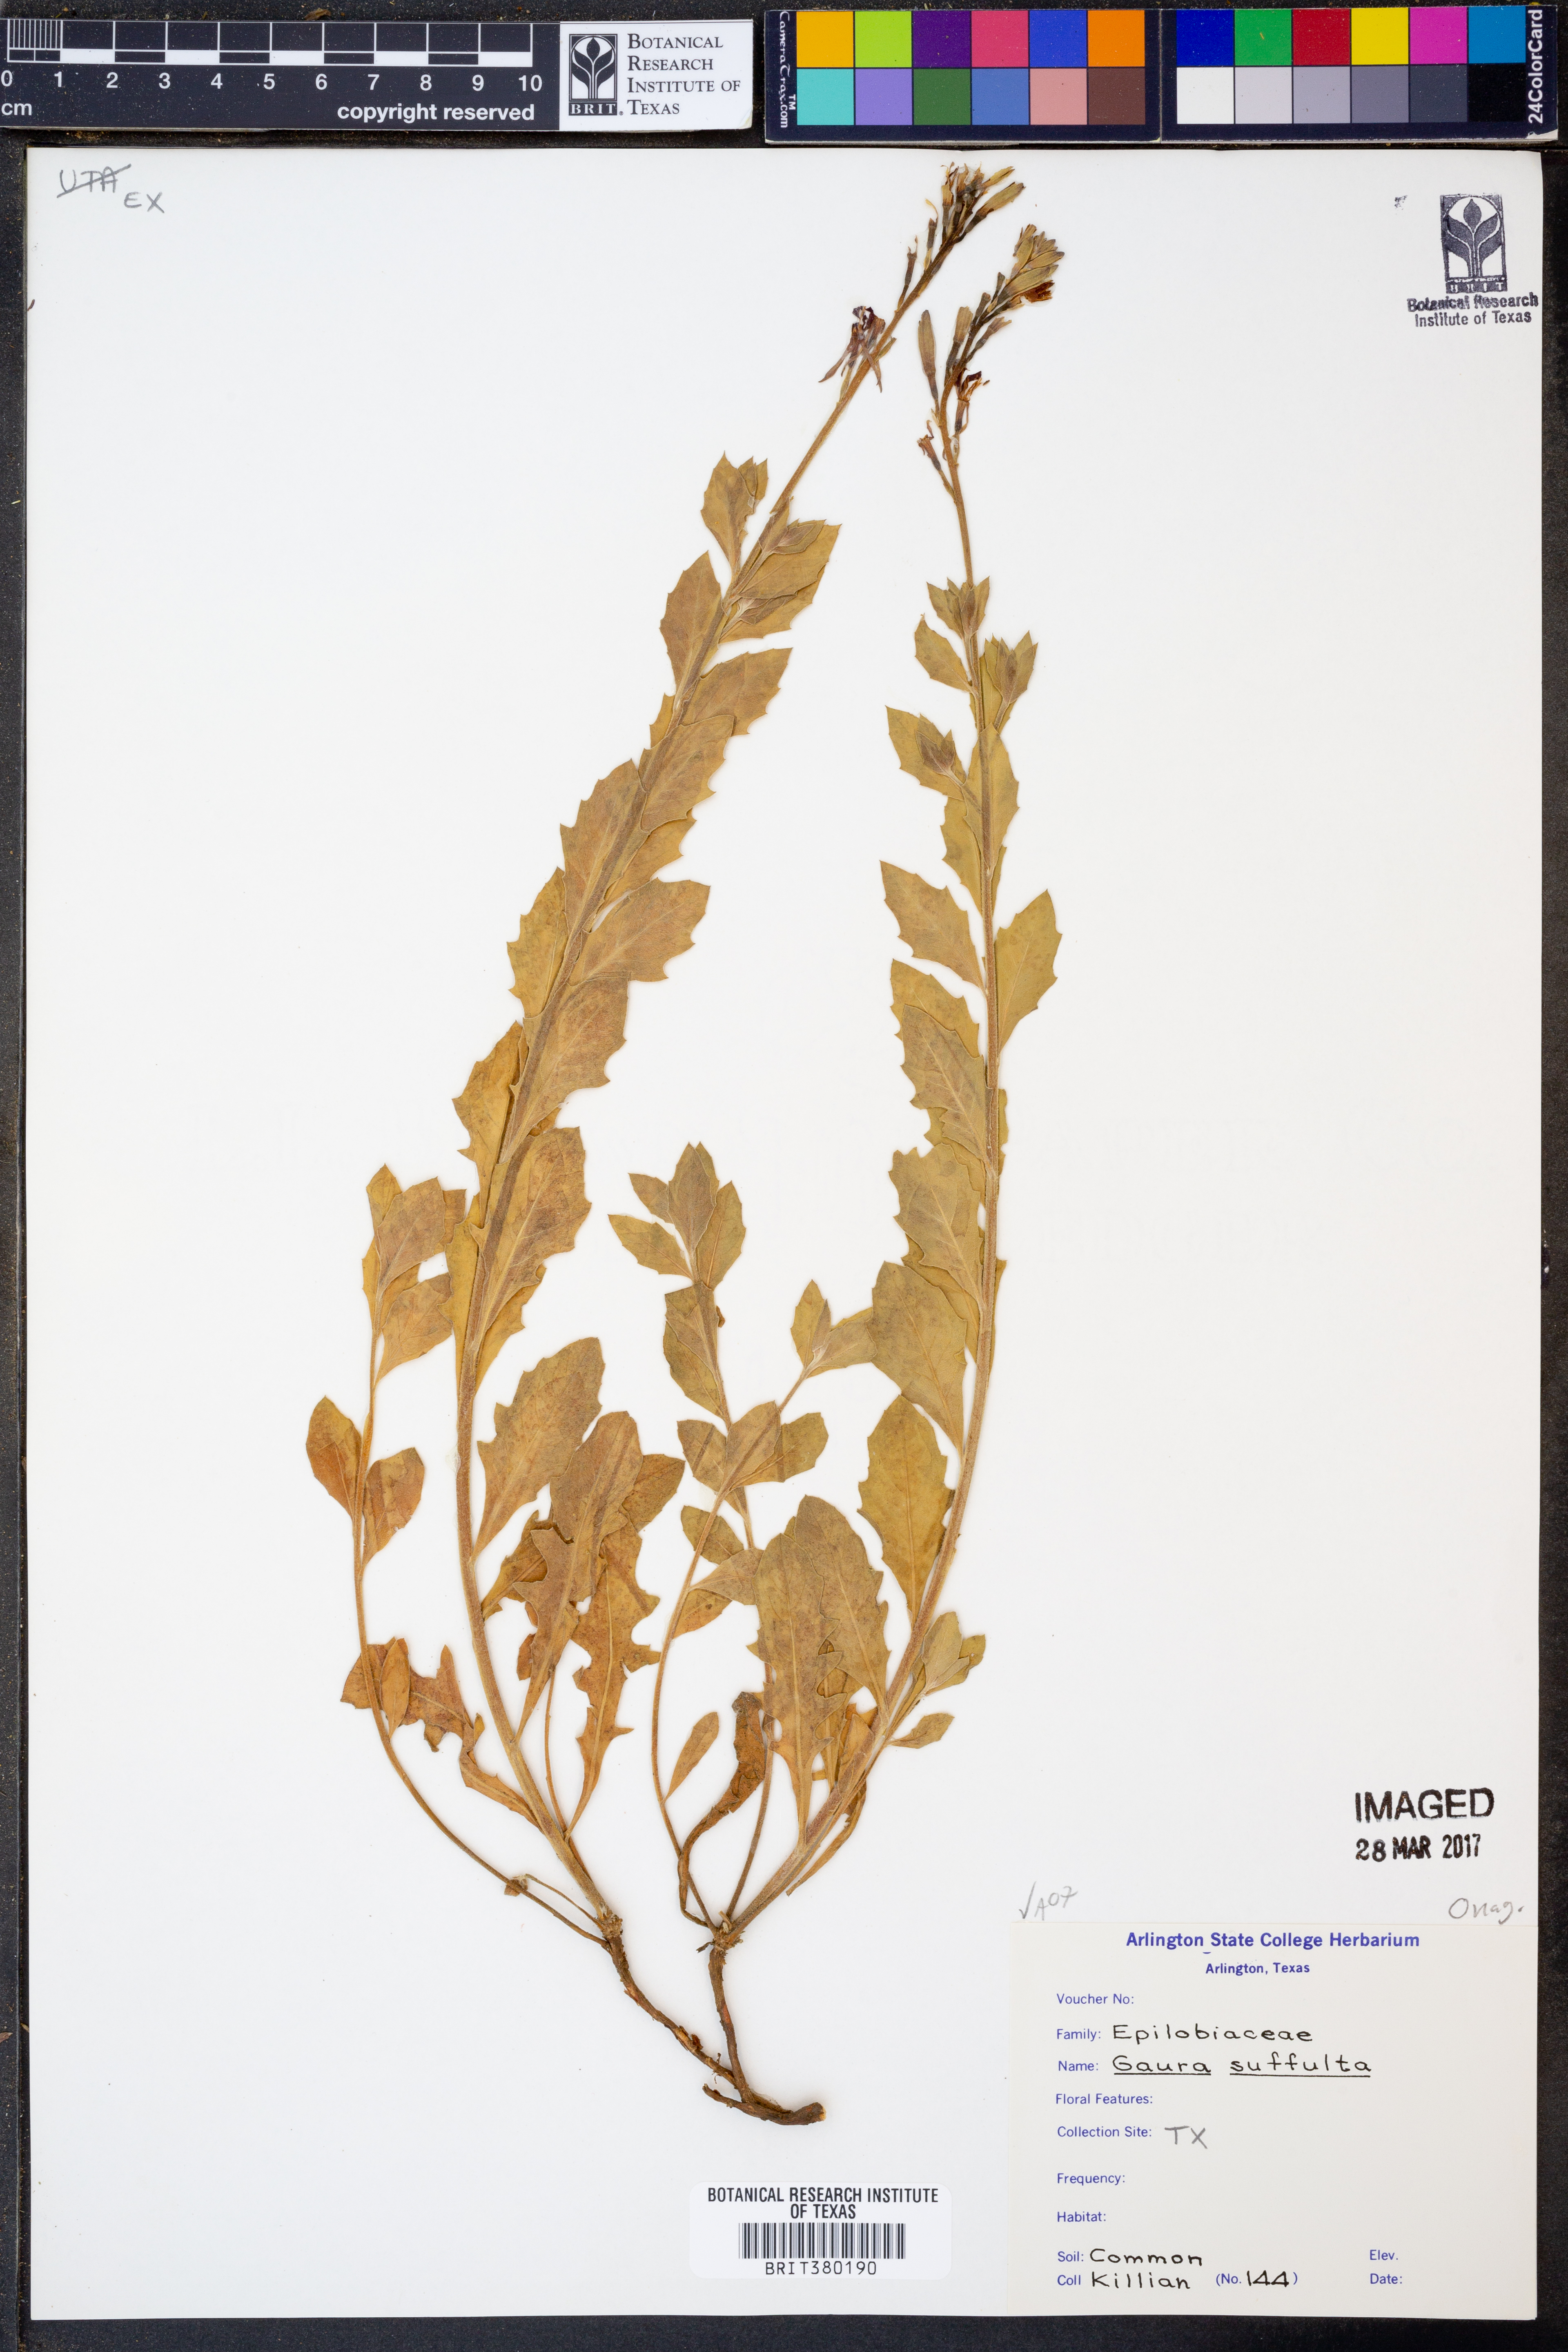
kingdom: Plantae
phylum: Tracheophyta
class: Magnoliopsida
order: Myrtales
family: Onagraceae
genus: Oenothera
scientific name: Oenothera Gaura suffulta
